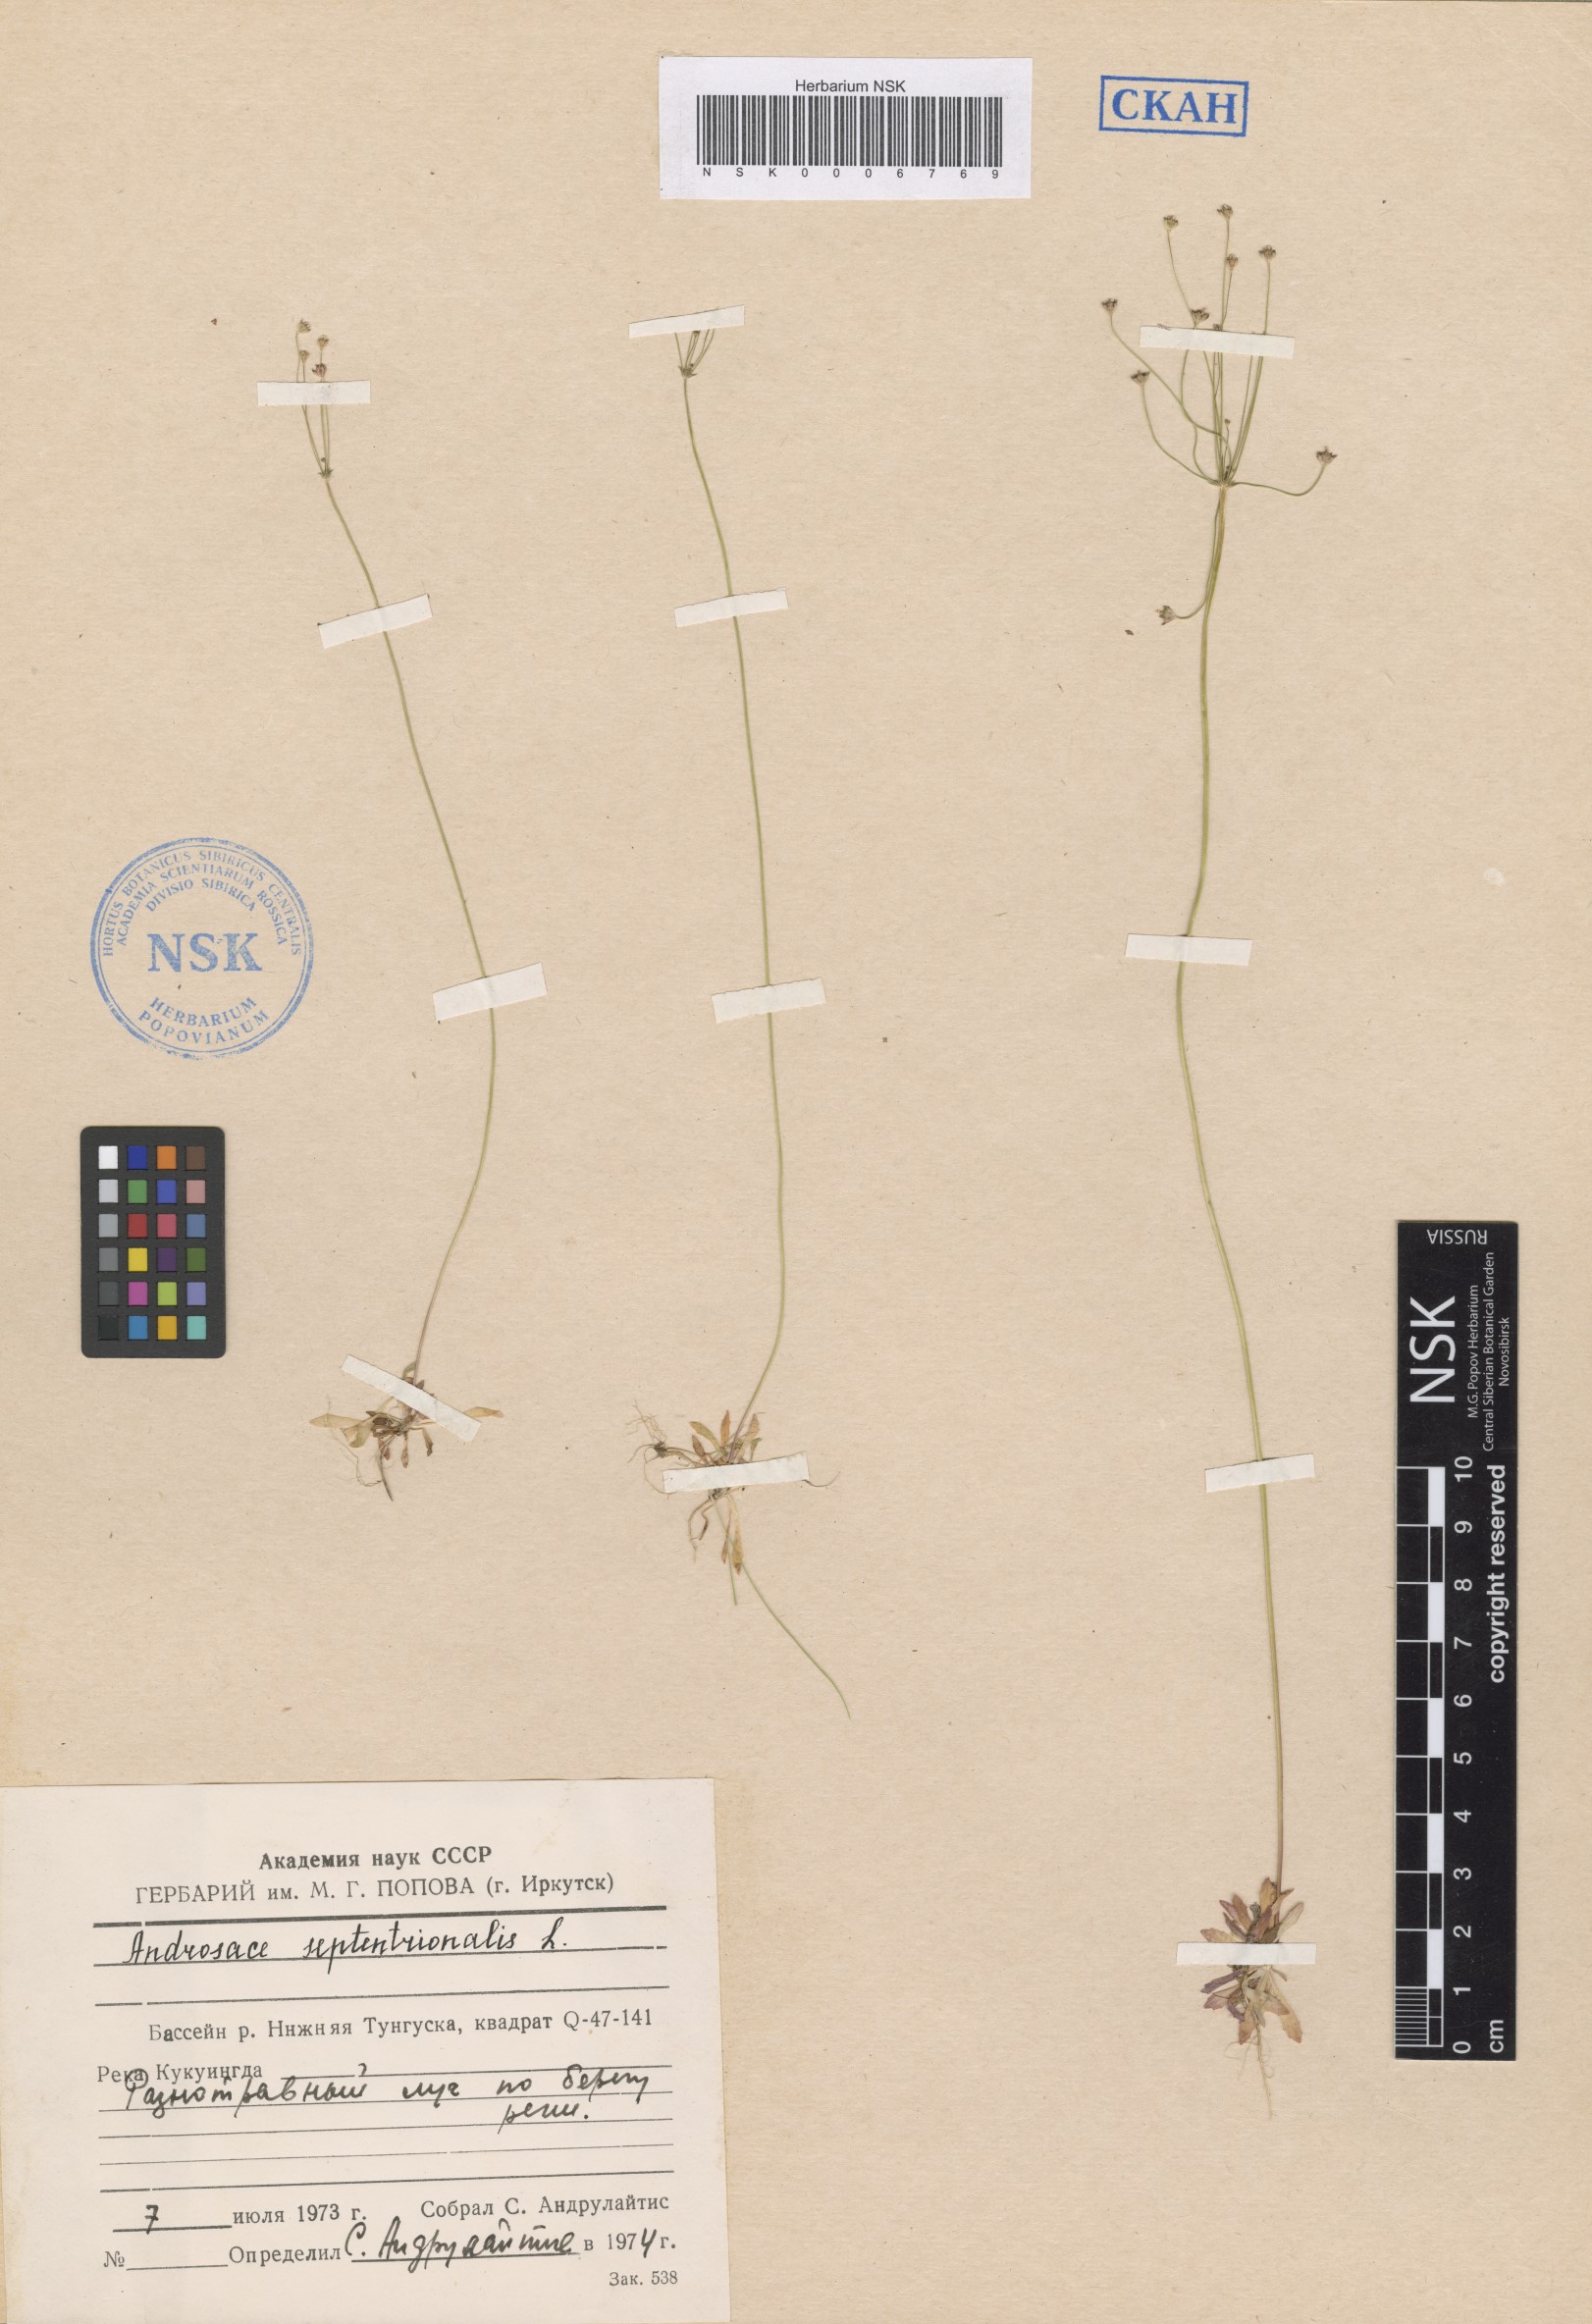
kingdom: Plantae
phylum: Tracheophyta
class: Magnoliopsida
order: Ericales
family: Primulaceae
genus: Androsace
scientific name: Androsace septentrionalis
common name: Hairy northern fairy-candelabra
